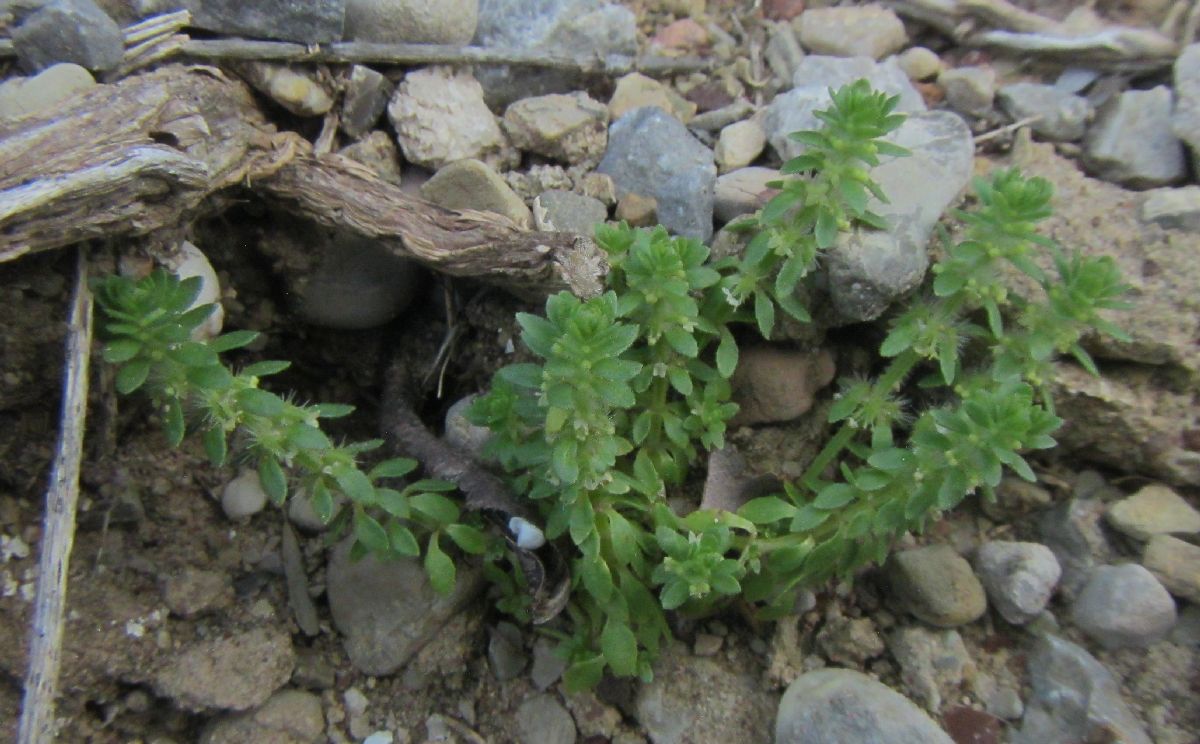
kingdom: Plantae
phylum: Tracheophyta
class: Magnoliopsida
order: Gentianales
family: Rubiaceae
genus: Valantia
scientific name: Valantia muralis
